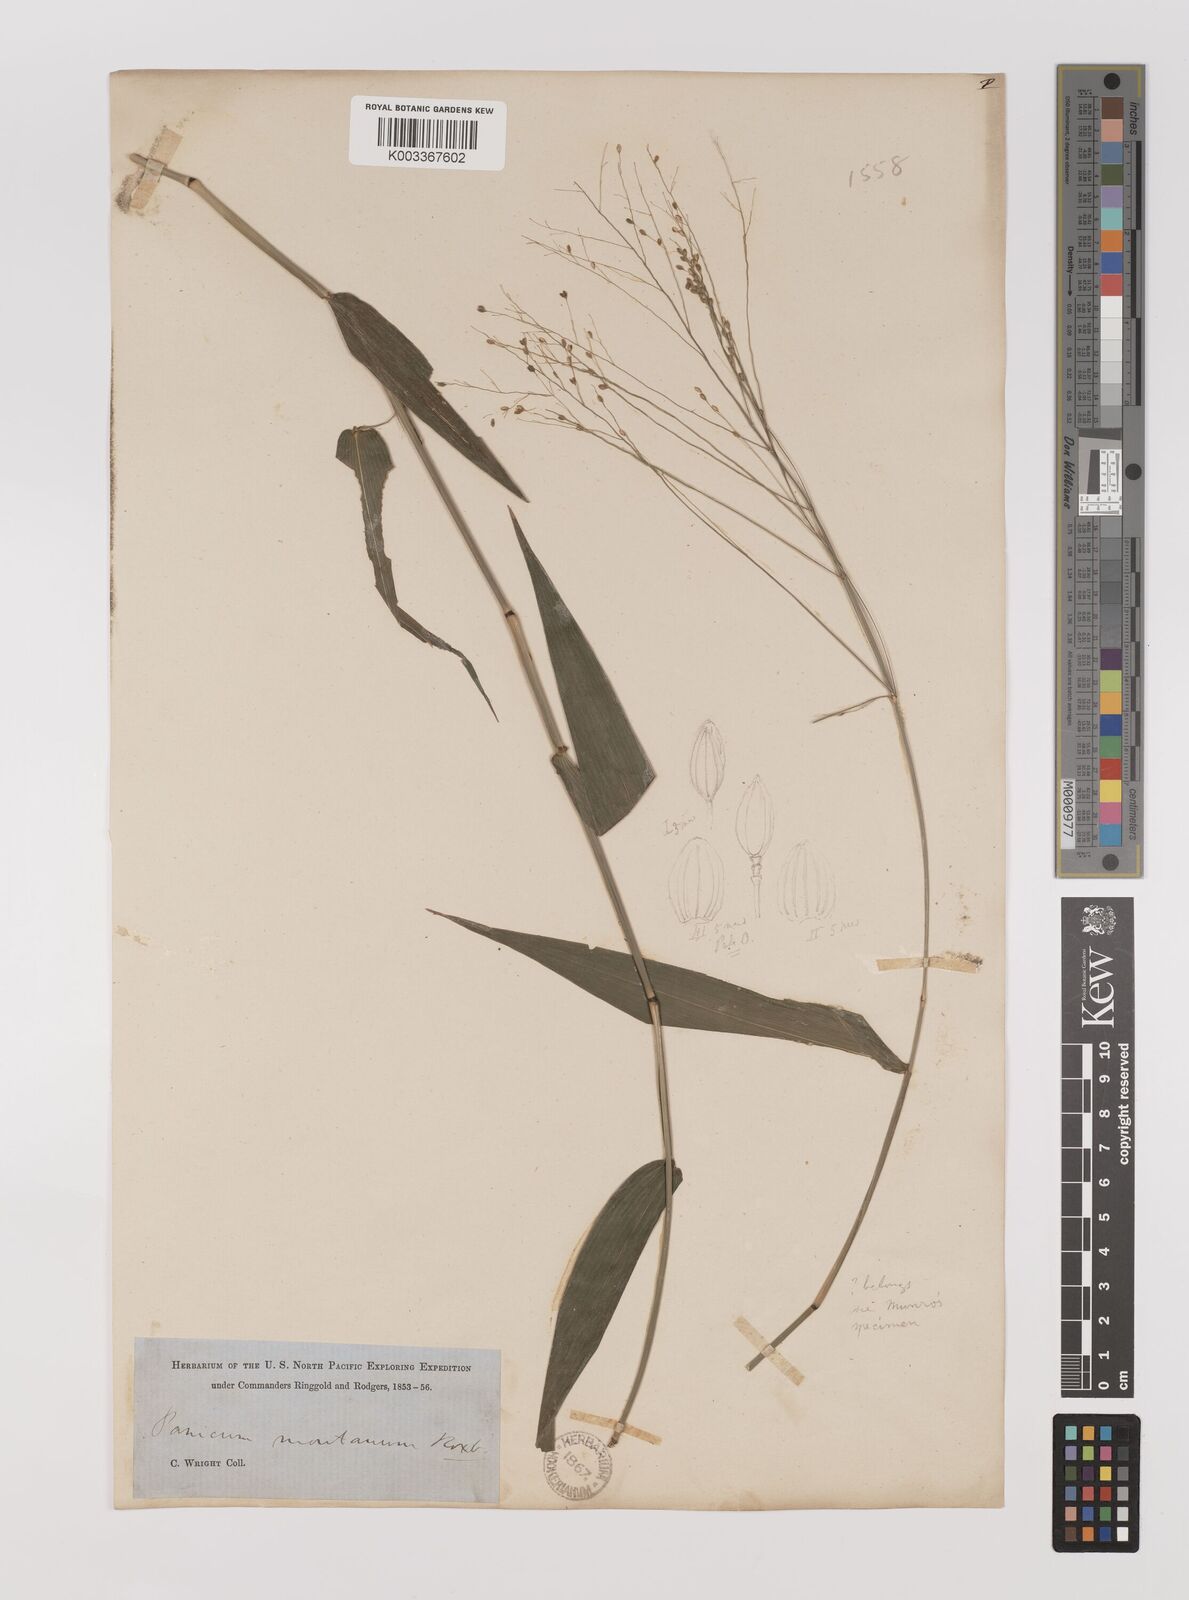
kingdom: Plantae
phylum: Tracheophyta
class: Liliopsida
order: Poales
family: Poaceae
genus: Panicum
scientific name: Panicum notatum
